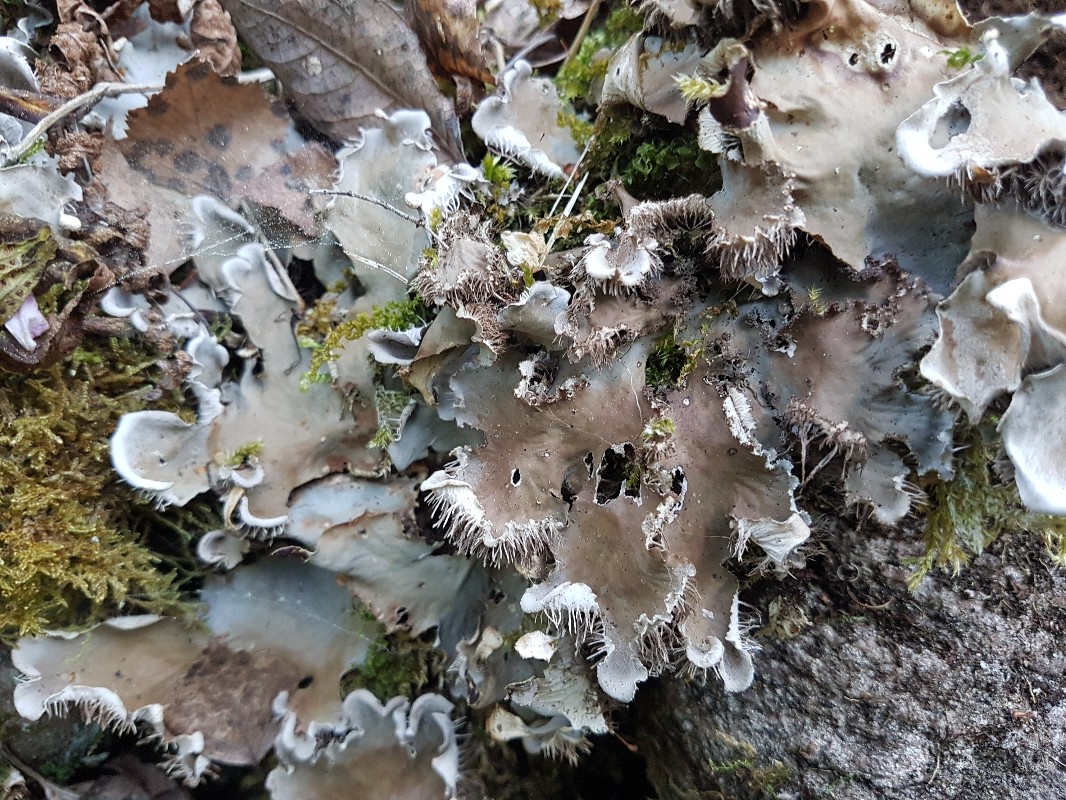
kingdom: Fungi
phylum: Ascomycota
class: Lecanoromycetes
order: Peltigerales
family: Peltigeraceae
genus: Peltigera
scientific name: Peltigera praetextata
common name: kruset skjoldlav
